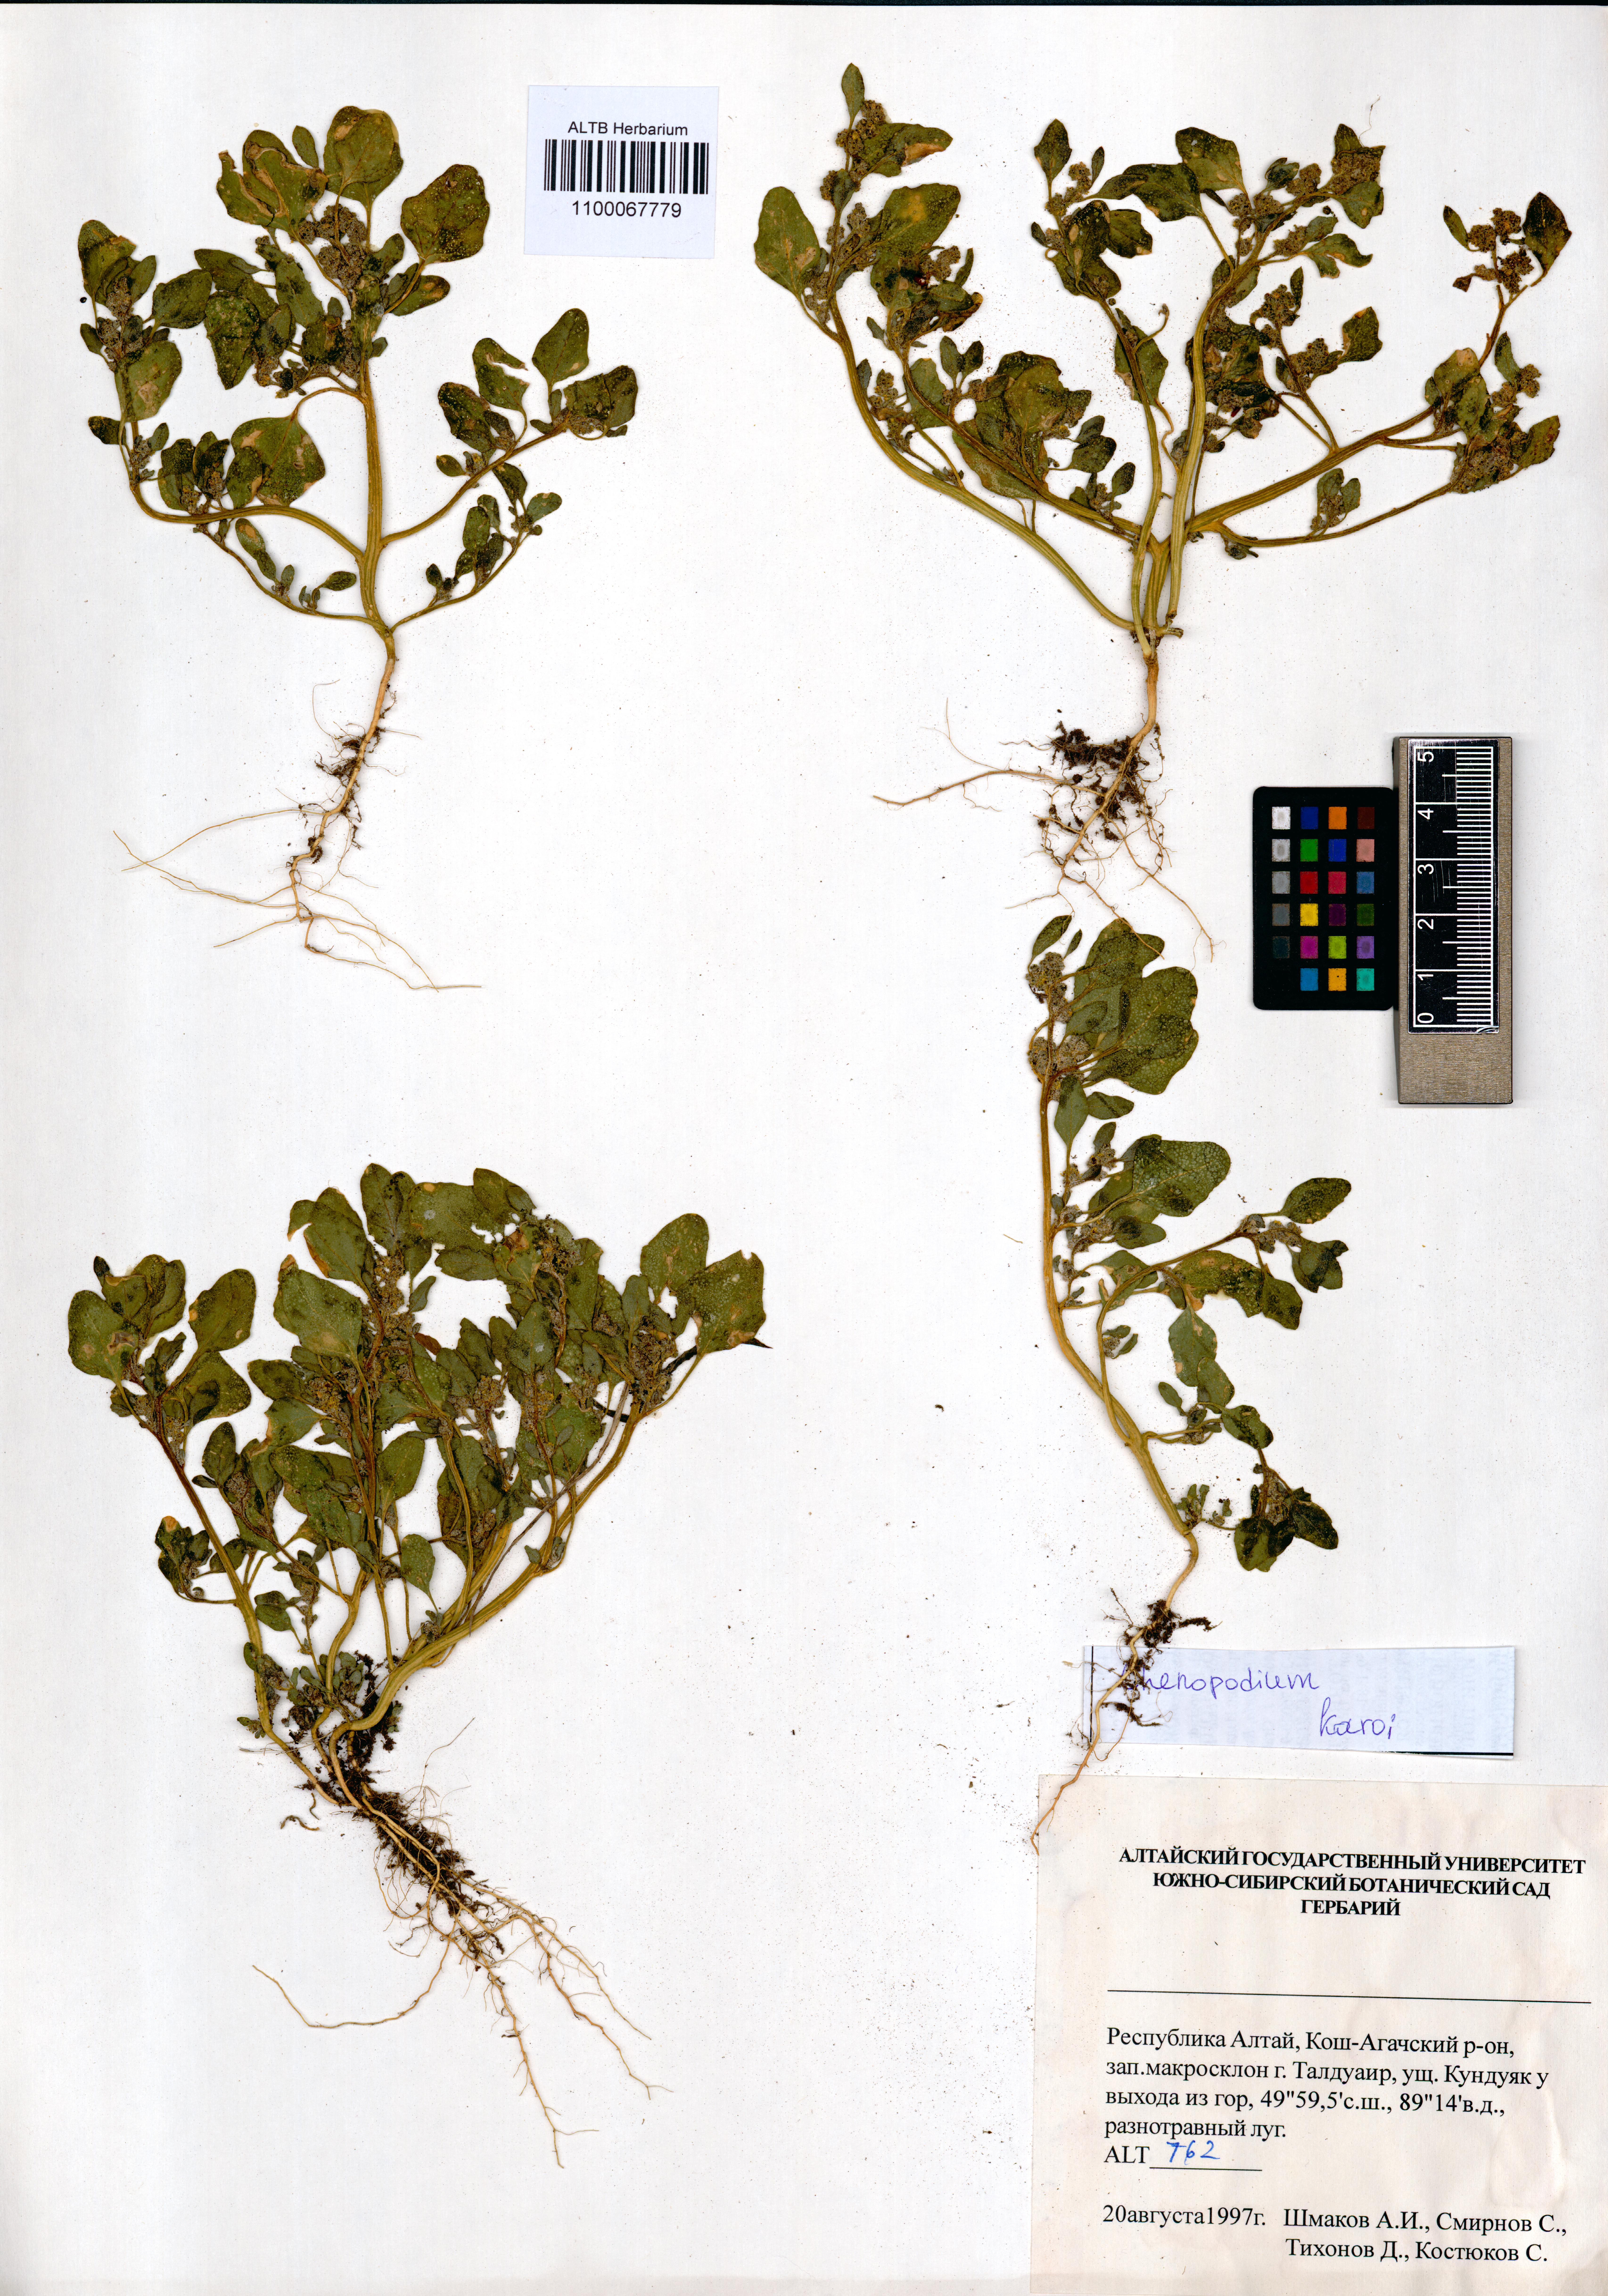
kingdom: Plantae
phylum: Tracheophyta
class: Magnoliopsida
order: Caryophyllales
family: Amaranthaceae
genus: Chenopodium
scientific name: Chenopodium karoi
